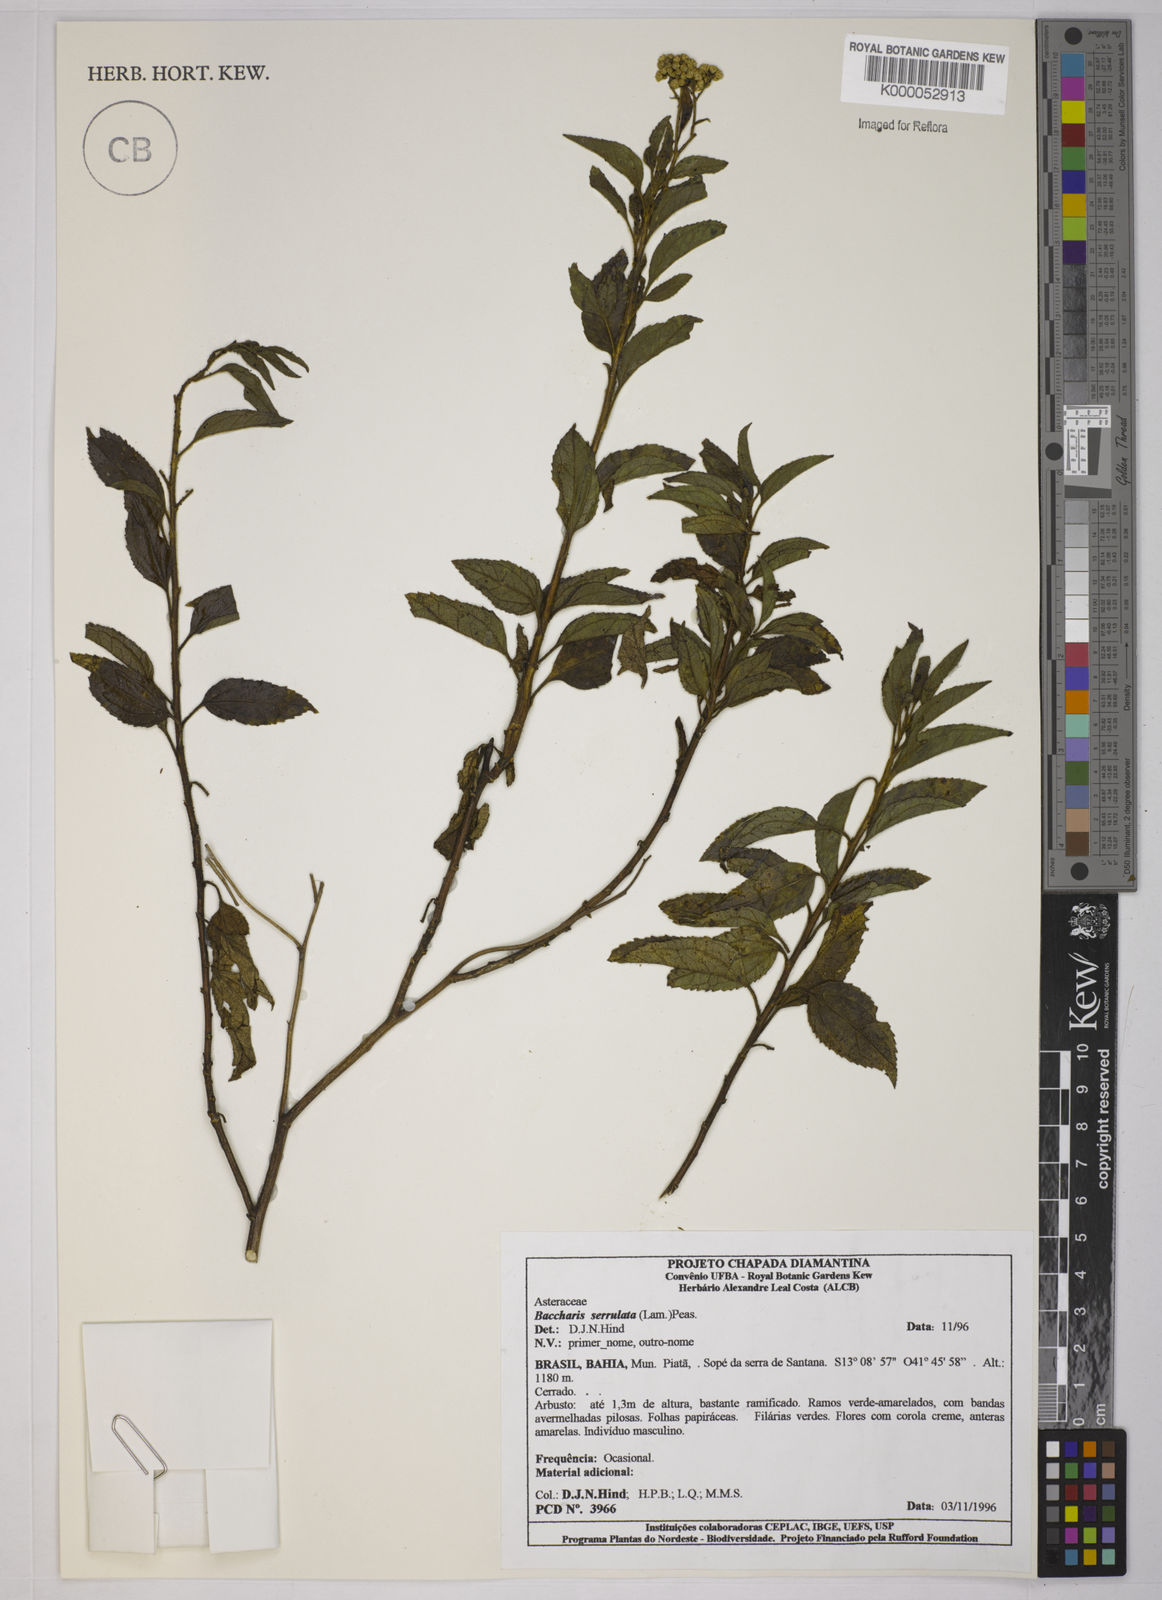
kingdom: Plantae
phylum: Tracheophyta
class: Magnoliopsida
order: Asterales
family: Asteraceae
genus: Baccharis
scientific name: Baccharis serrulata
